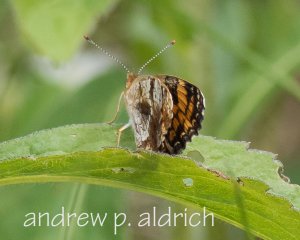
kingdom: Animalia
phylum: Arthropoda
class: Insecta
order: Lepidoptera
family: Nymphalidae
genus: Phyciodes
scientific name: Phyciodes
